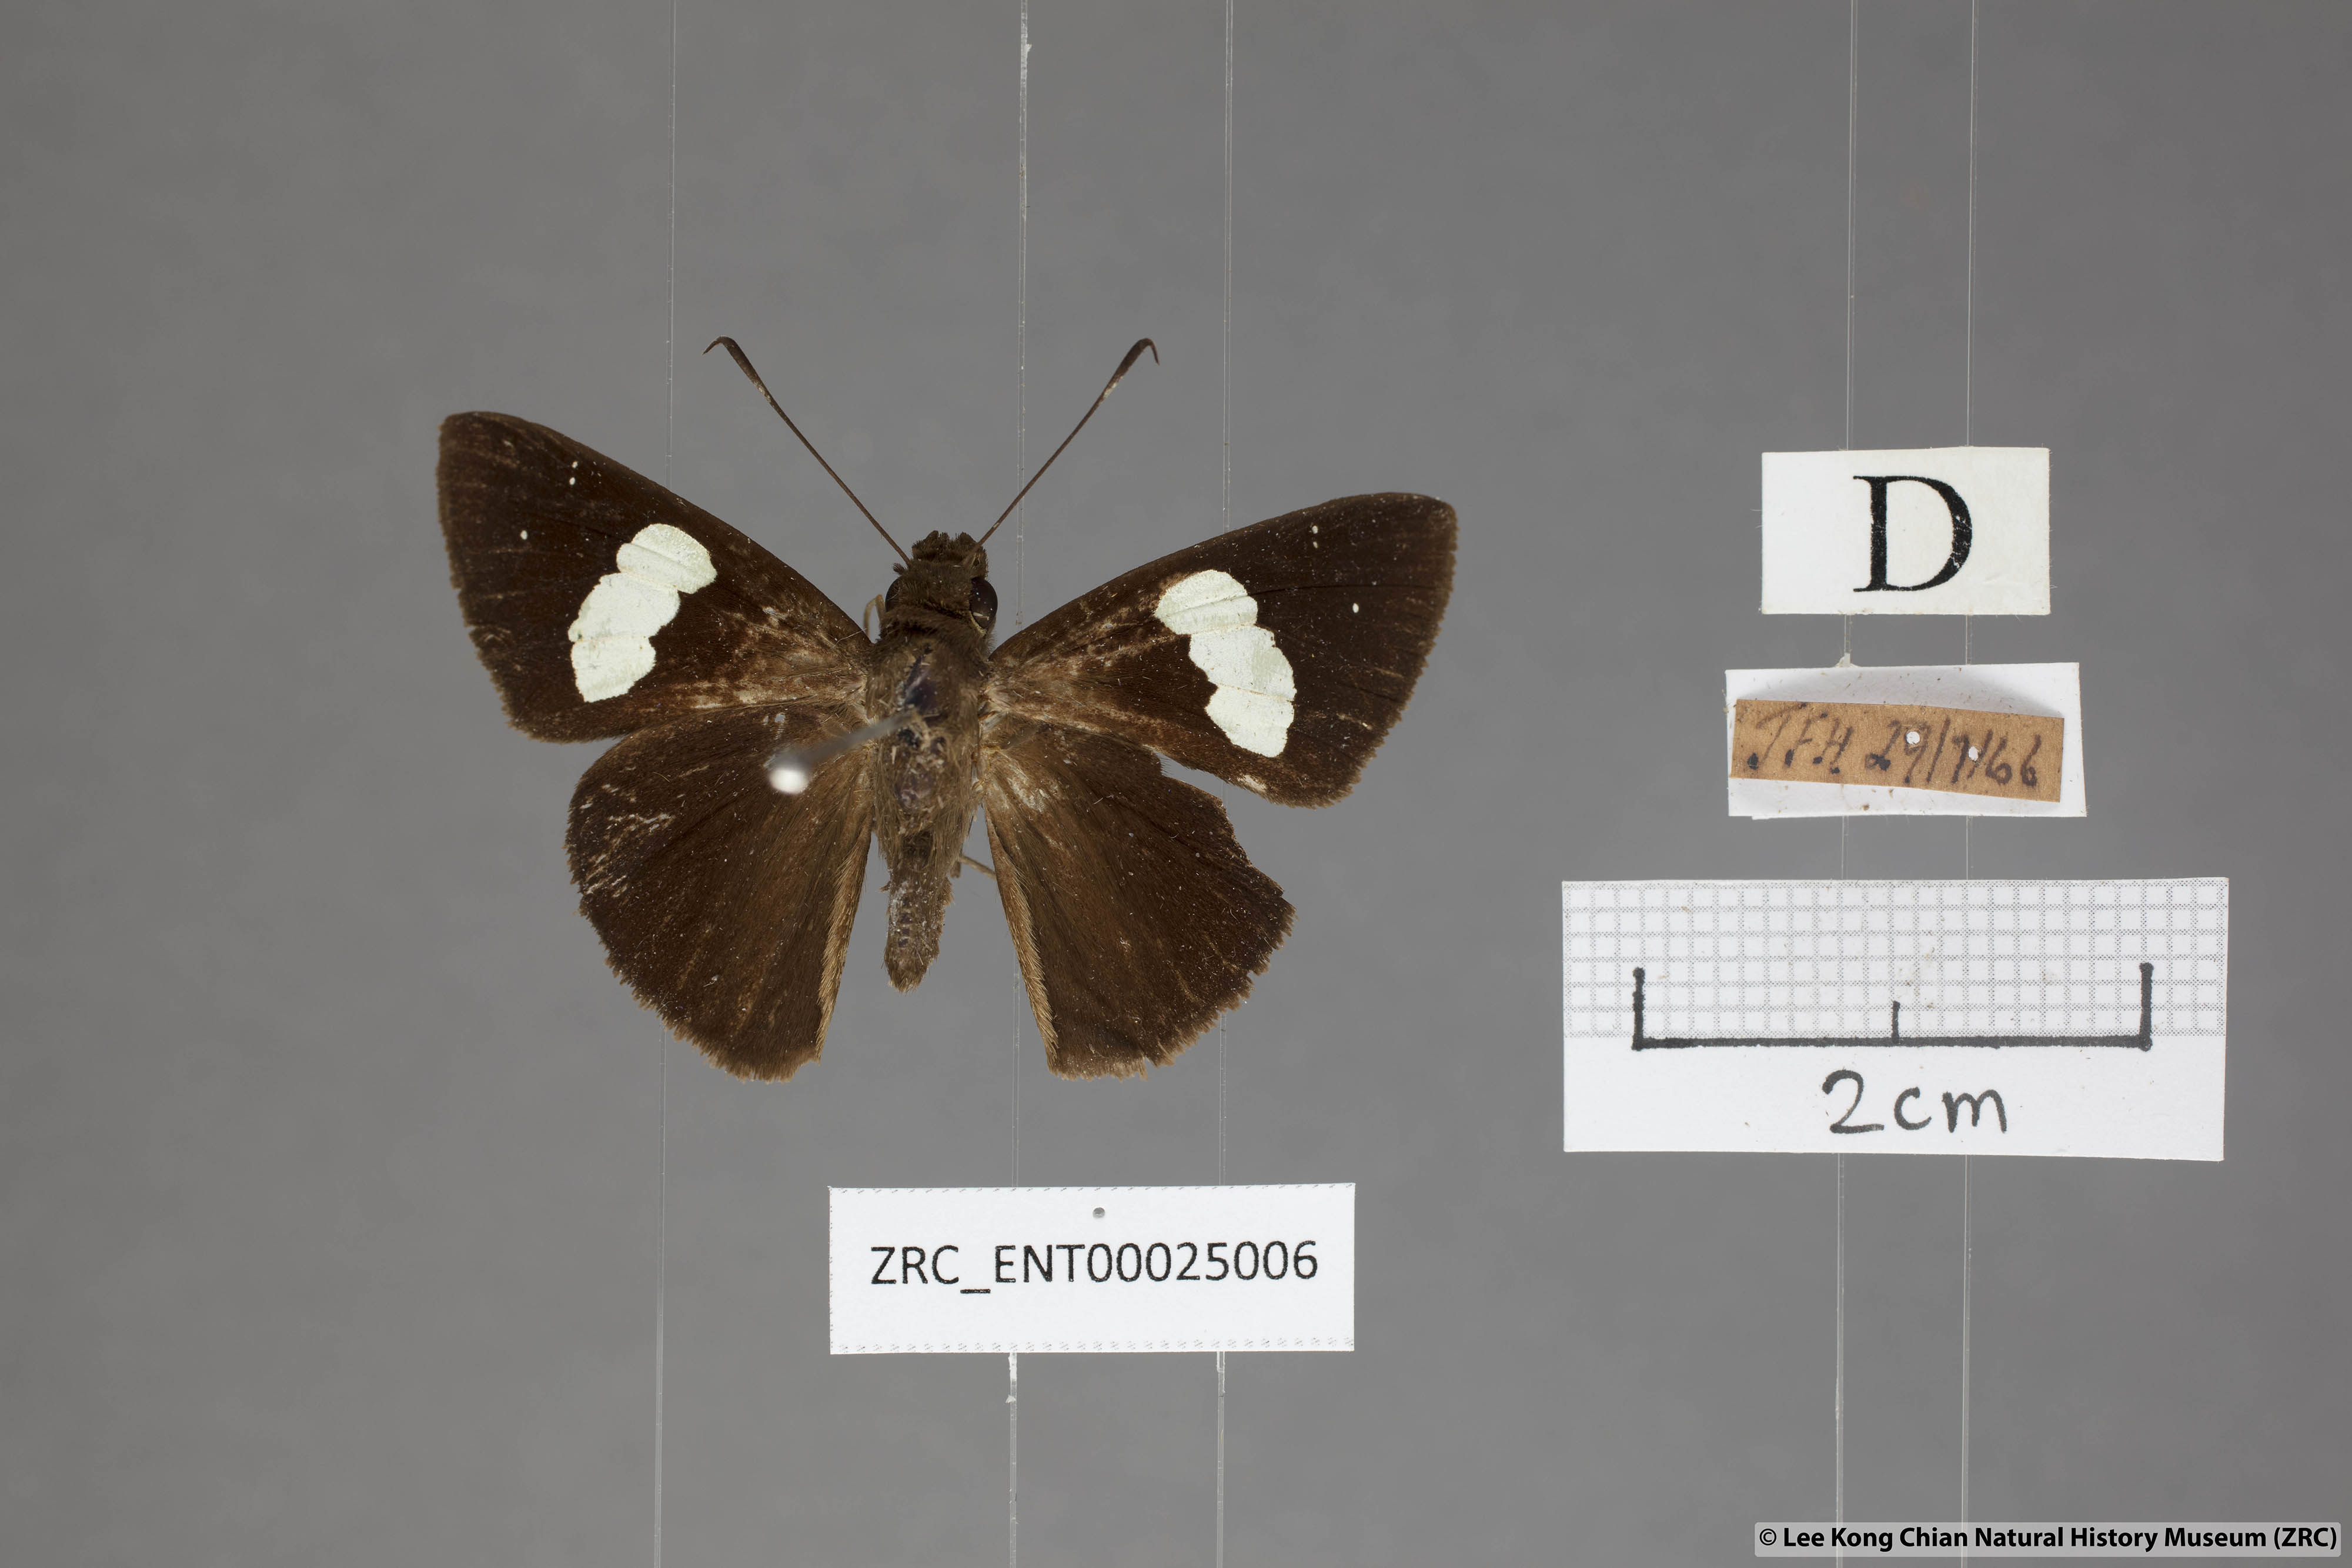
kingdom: Animalia
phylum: Arthropoda
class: Insecta
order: Lepidoptera
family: Hesperiidae
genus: Notocrypta
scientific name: Notocrypta curvifascia
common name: Restricted demon
